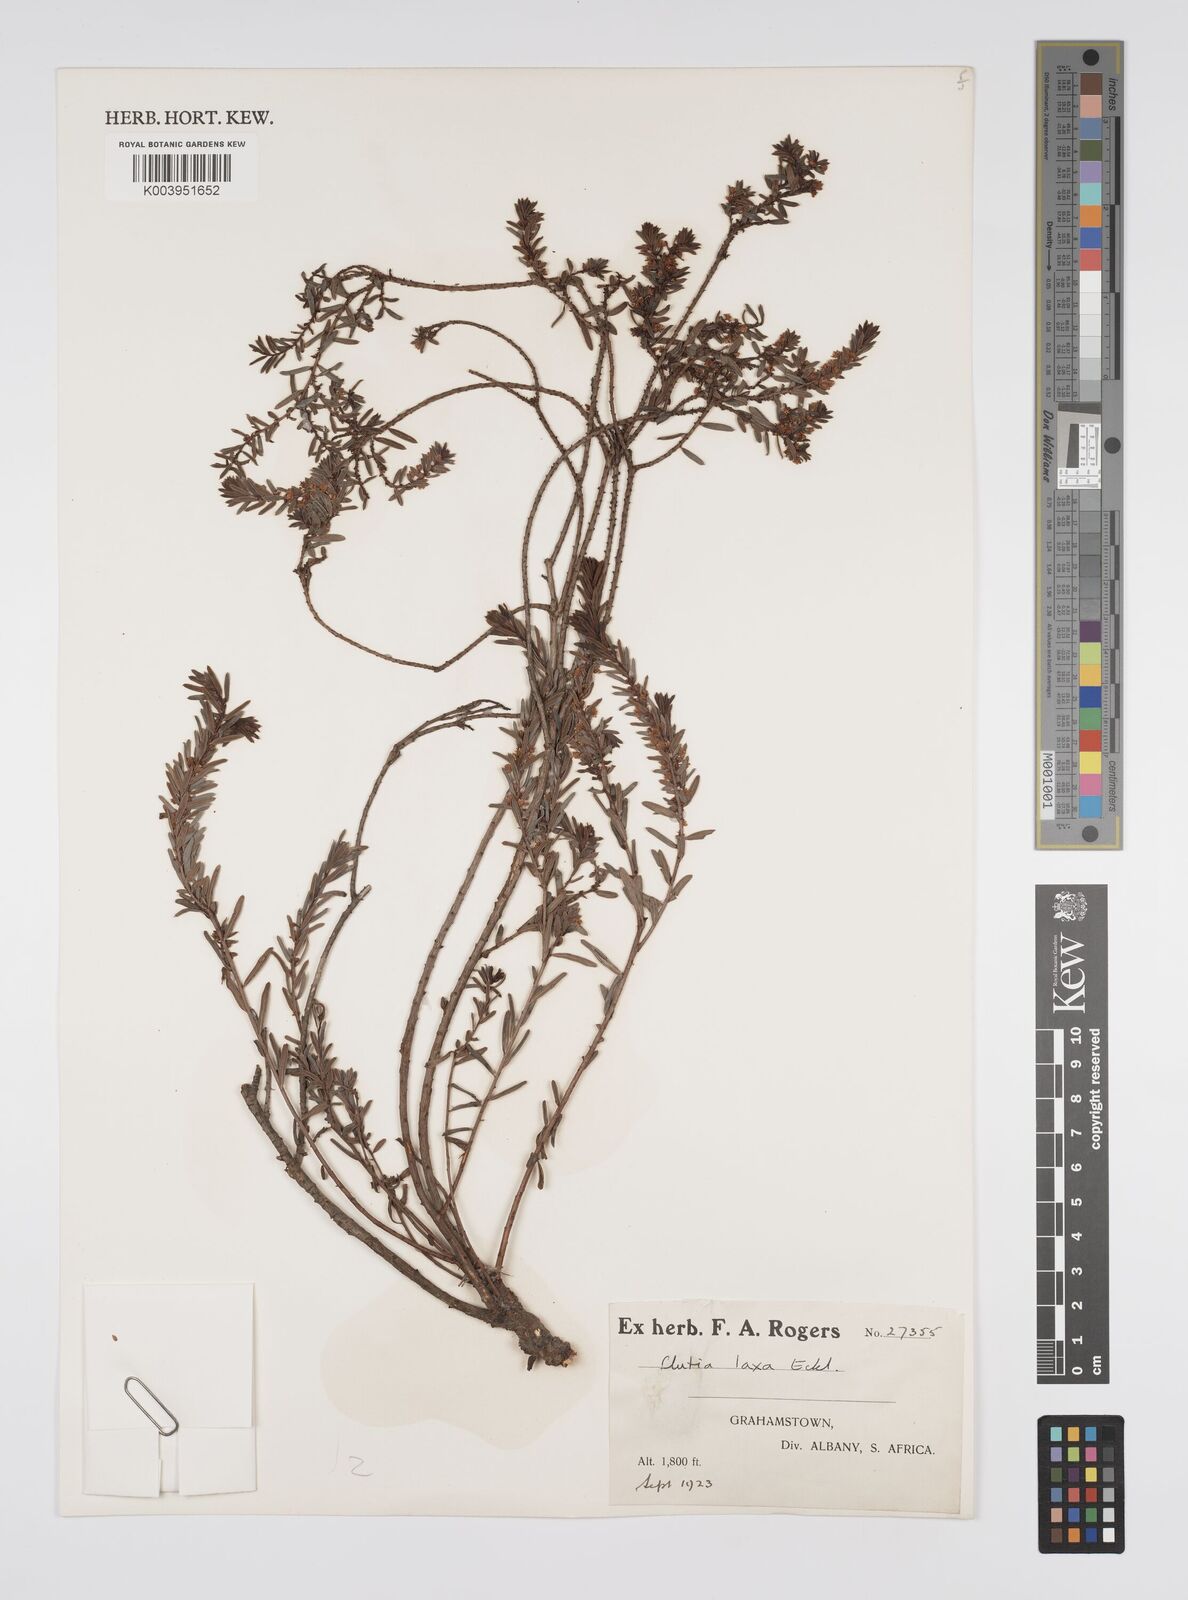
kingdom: Plantae
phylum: Tracheophyta
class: Magnoliopsida
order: Malpighiales
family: Peraceae
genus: Clutia
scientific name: Clutia laxa
